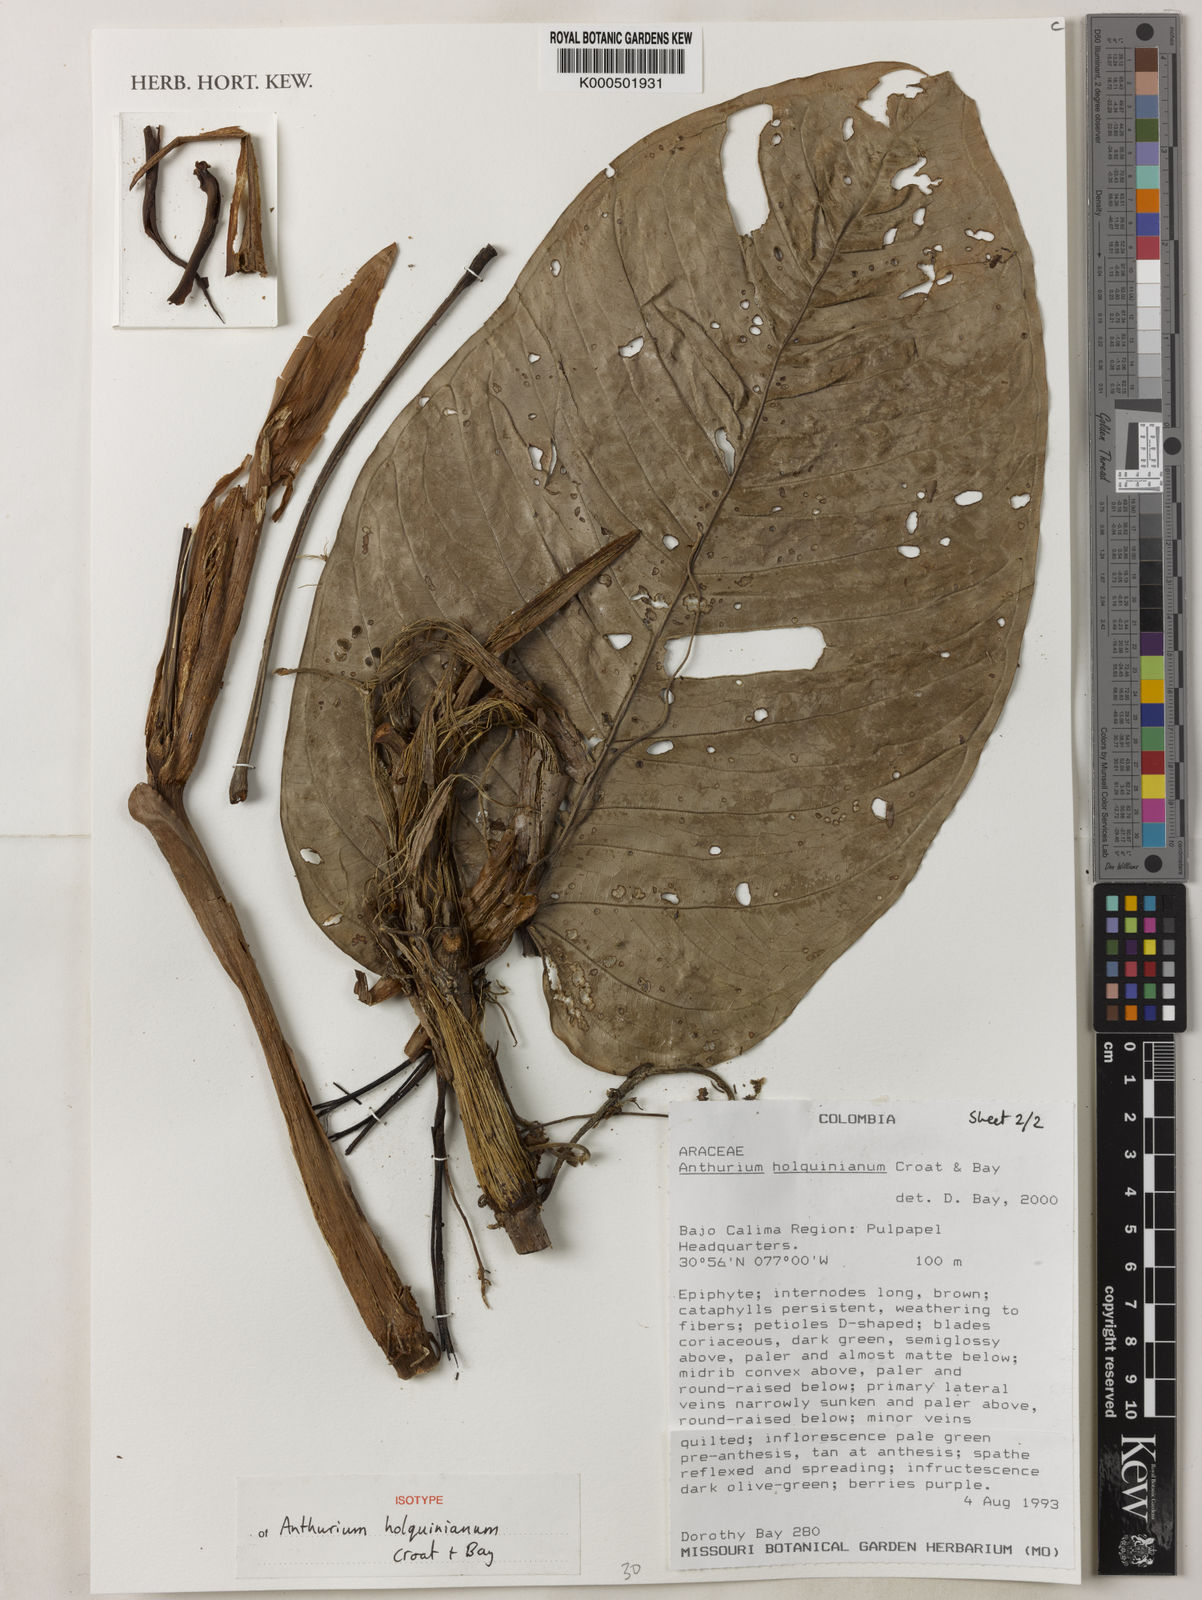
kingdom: Plantae
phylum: Tracheophyta
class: Liliopsida
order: Alismatales
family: Araceae
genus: Anthurium
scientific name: Anthurium holquinianum
